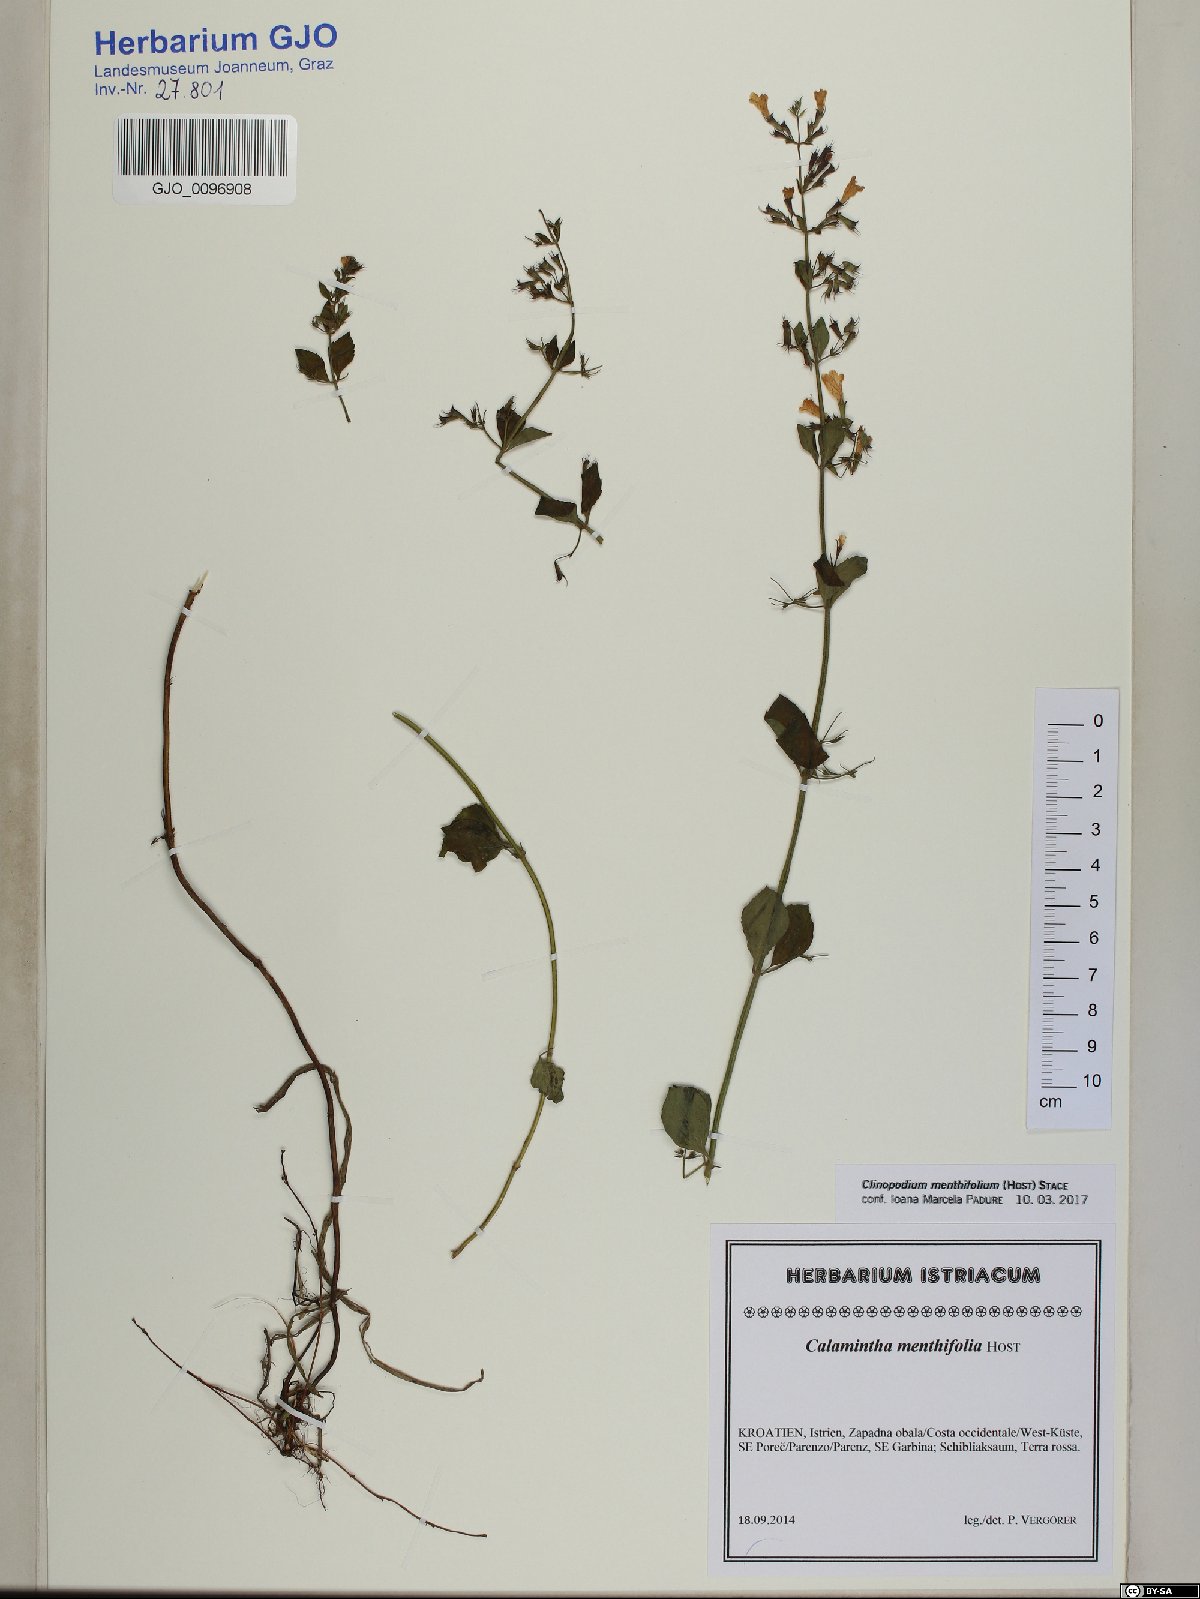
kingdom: Plantae
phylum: Tracheophyta
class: Magnoliopsida
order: Lamiales
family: Lamiaceae
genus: Clinopodium
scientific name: Clinopodium menthifolium
